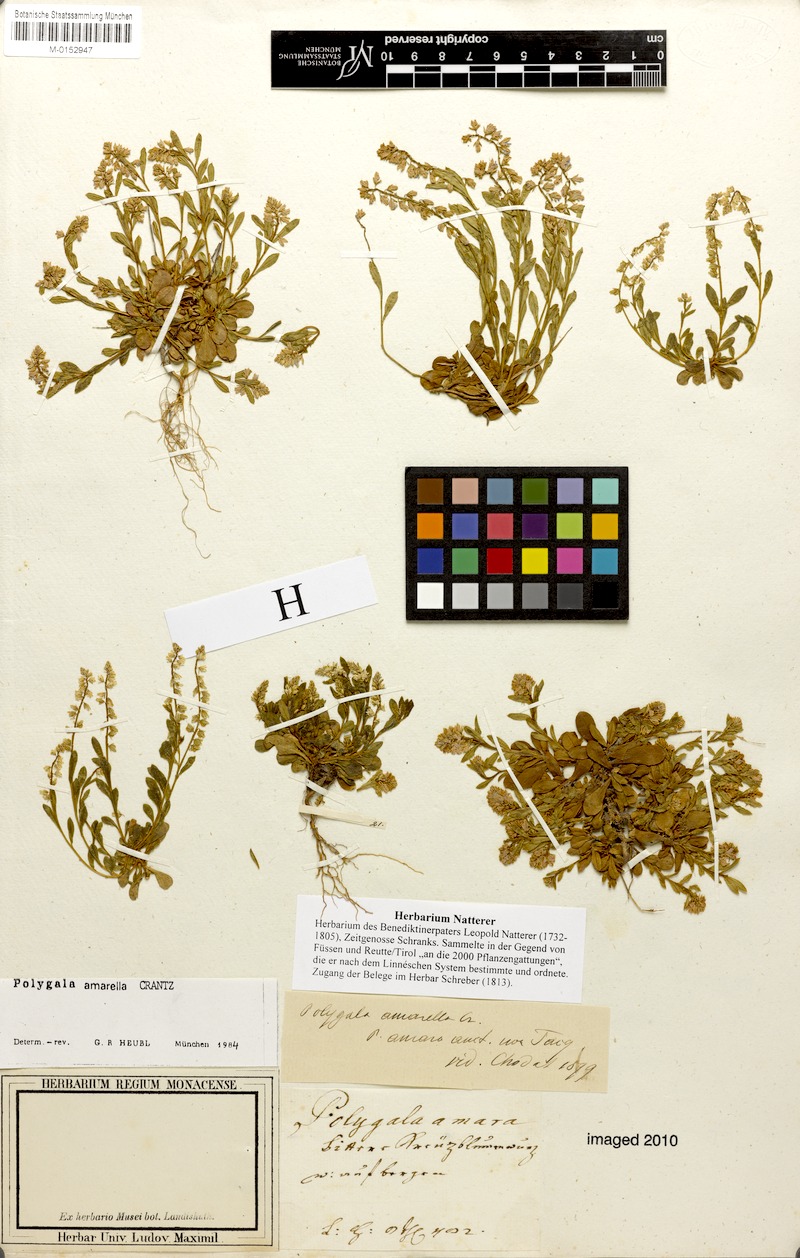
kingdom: Plantae
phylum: Tracheophyta
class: Magnoliopsida
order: Fabales
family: Polygalaceae
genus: Polygala
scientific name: Polygala amarella
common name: Dwarf milkwort
